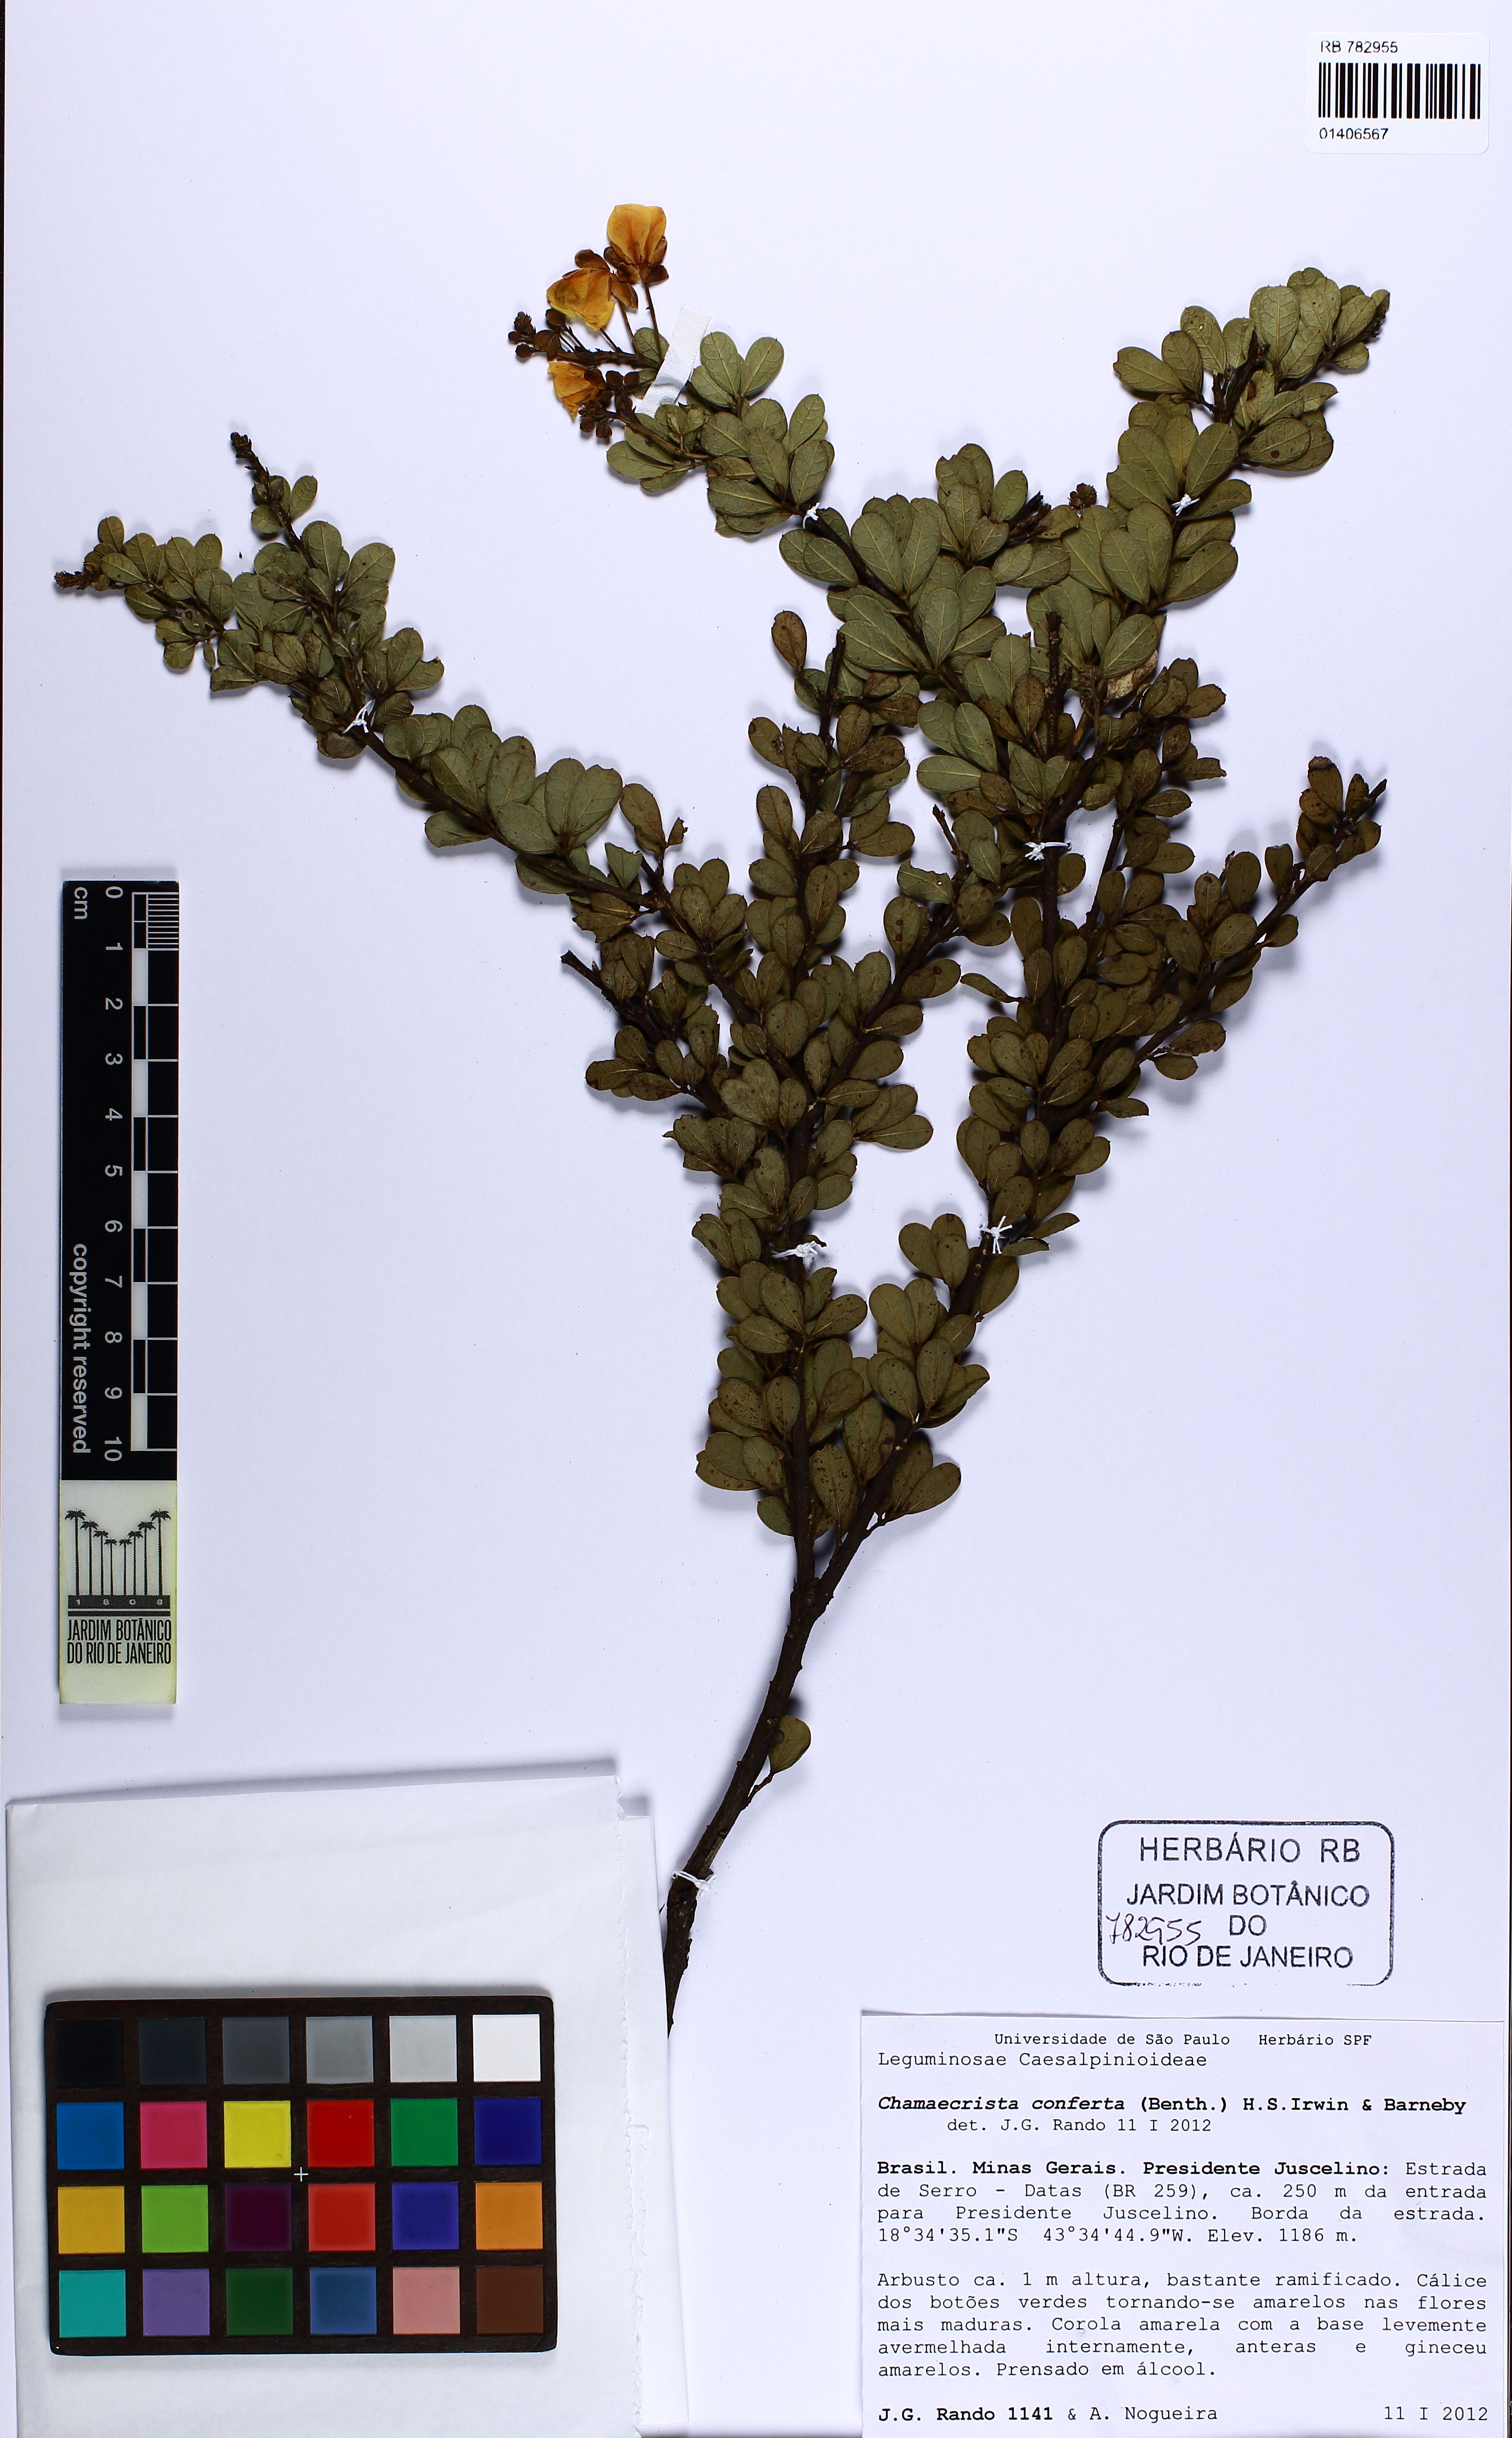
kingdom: Plantae
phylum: Tracheophyta
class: Magnoliopsida
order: Fabales
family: Fabaceae
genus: Chamaecrista
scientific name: Chamaecrista conferta
